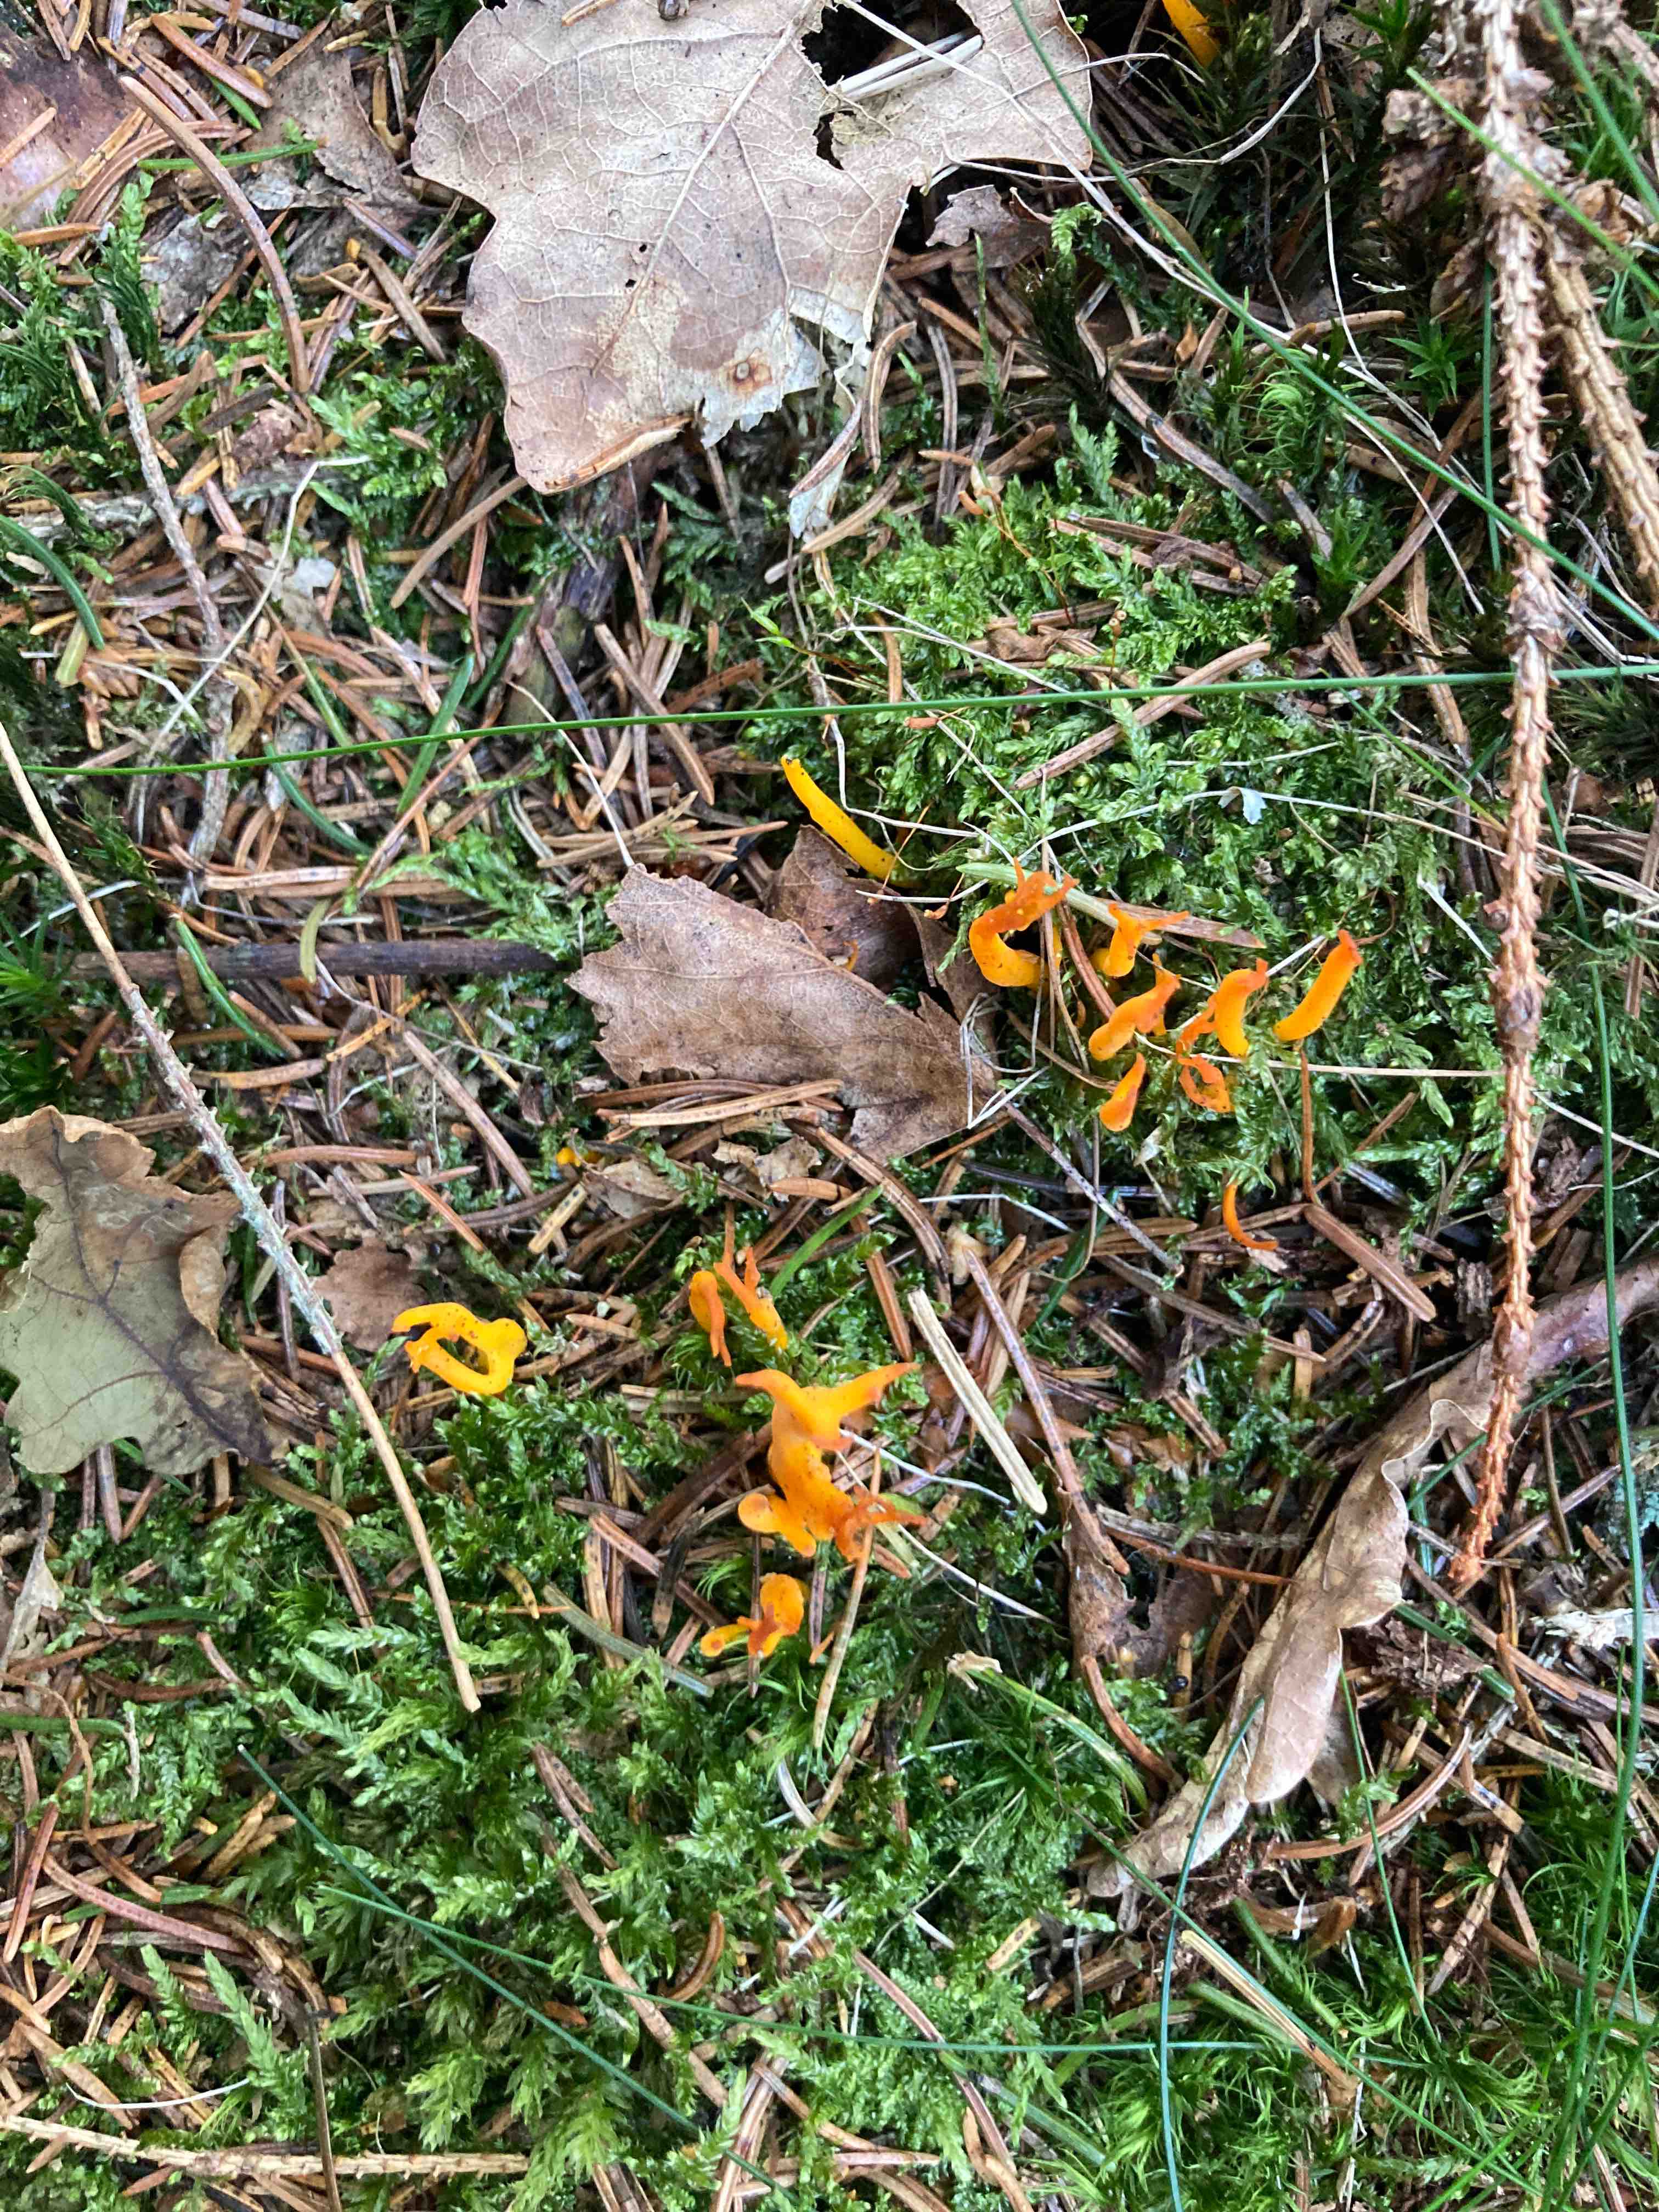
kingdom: Fungi
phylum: Basidiomycota
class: Dacrymycetes
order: Dacrymycetales
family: Dacrymycetaceae
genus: Calocera
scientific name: Calocera viscosa
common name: almindelig guldgaffel
